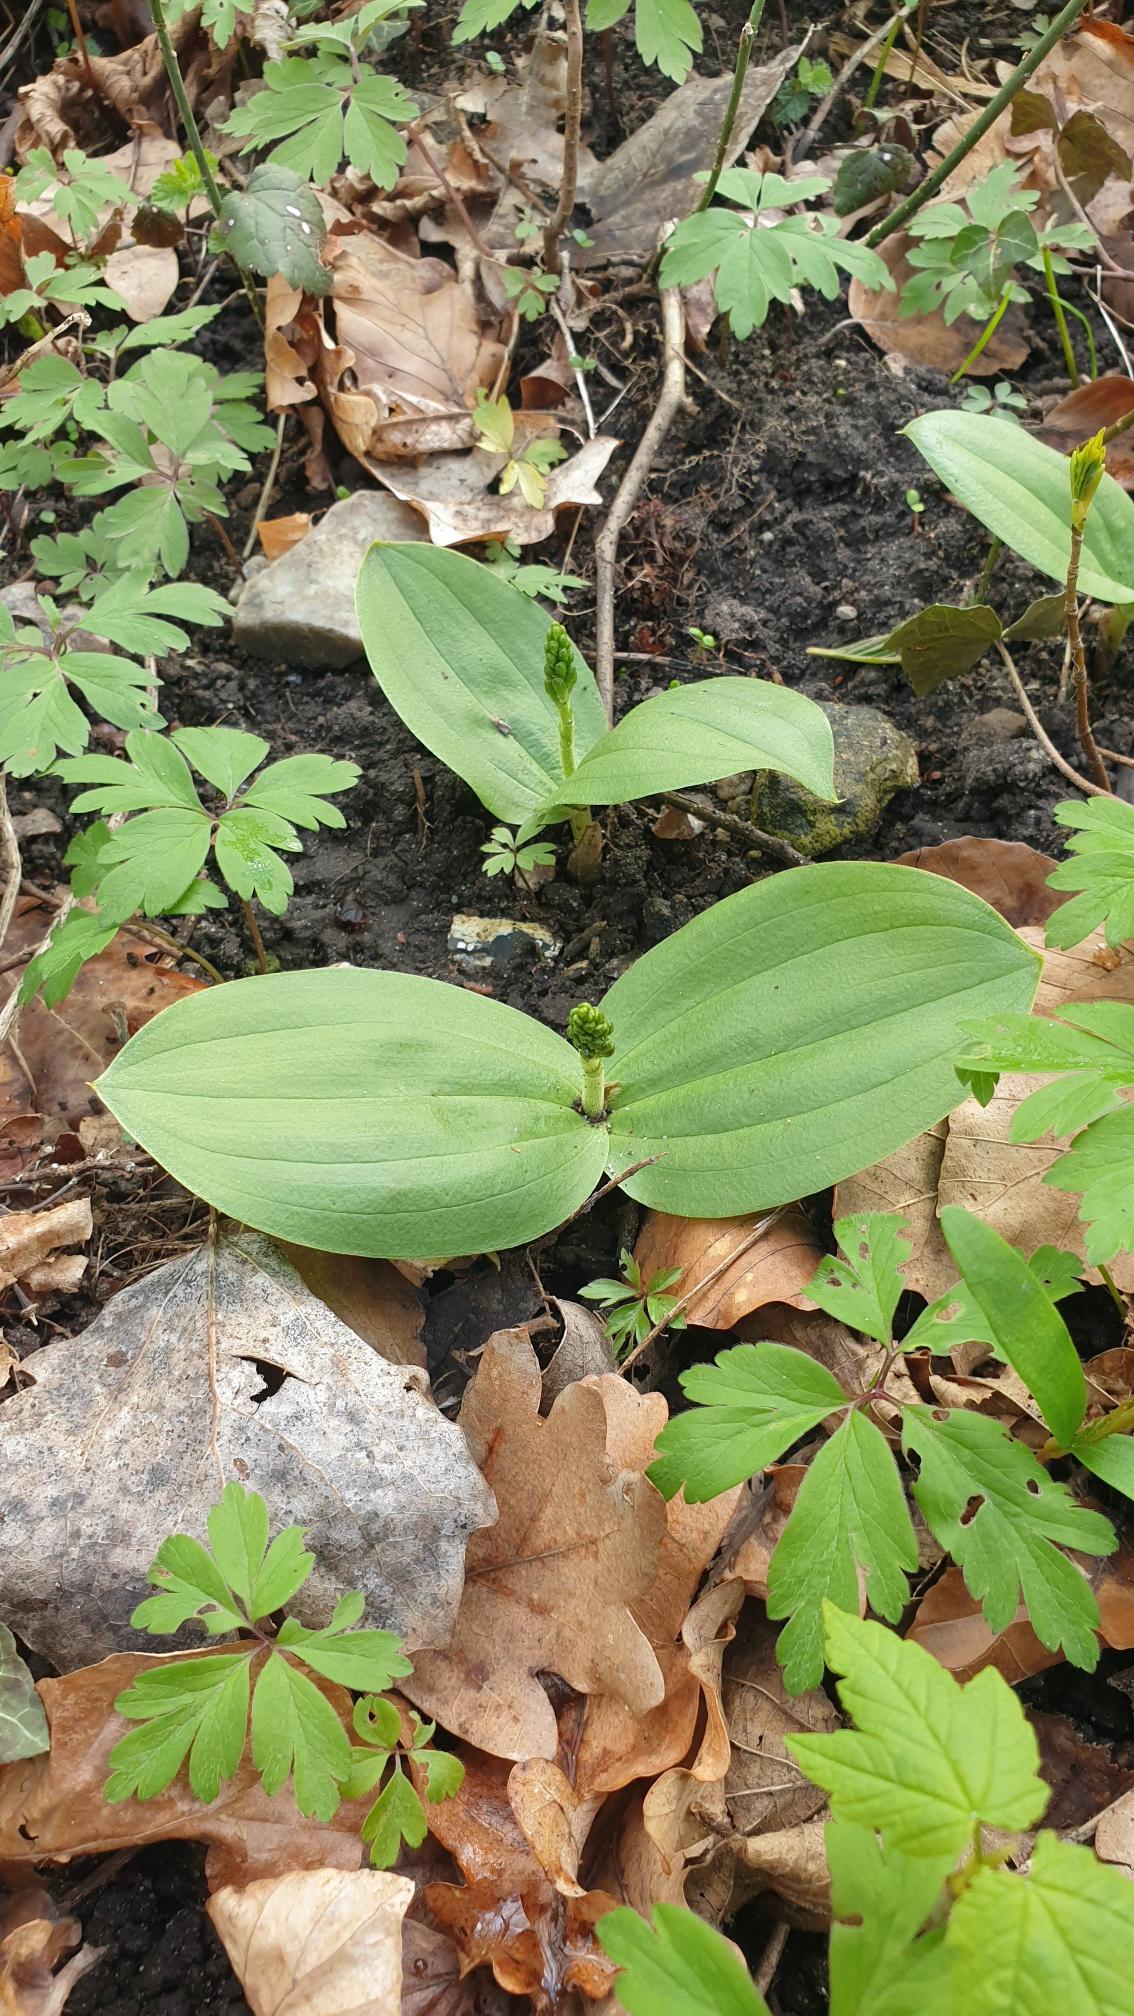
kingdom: Plantae
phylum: Tracheophyta
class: Liliopsida
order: Asparagales
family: Orchidaceae
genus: Neottia
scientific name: Neottia ovata
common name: Ægbladet fliglæbe
